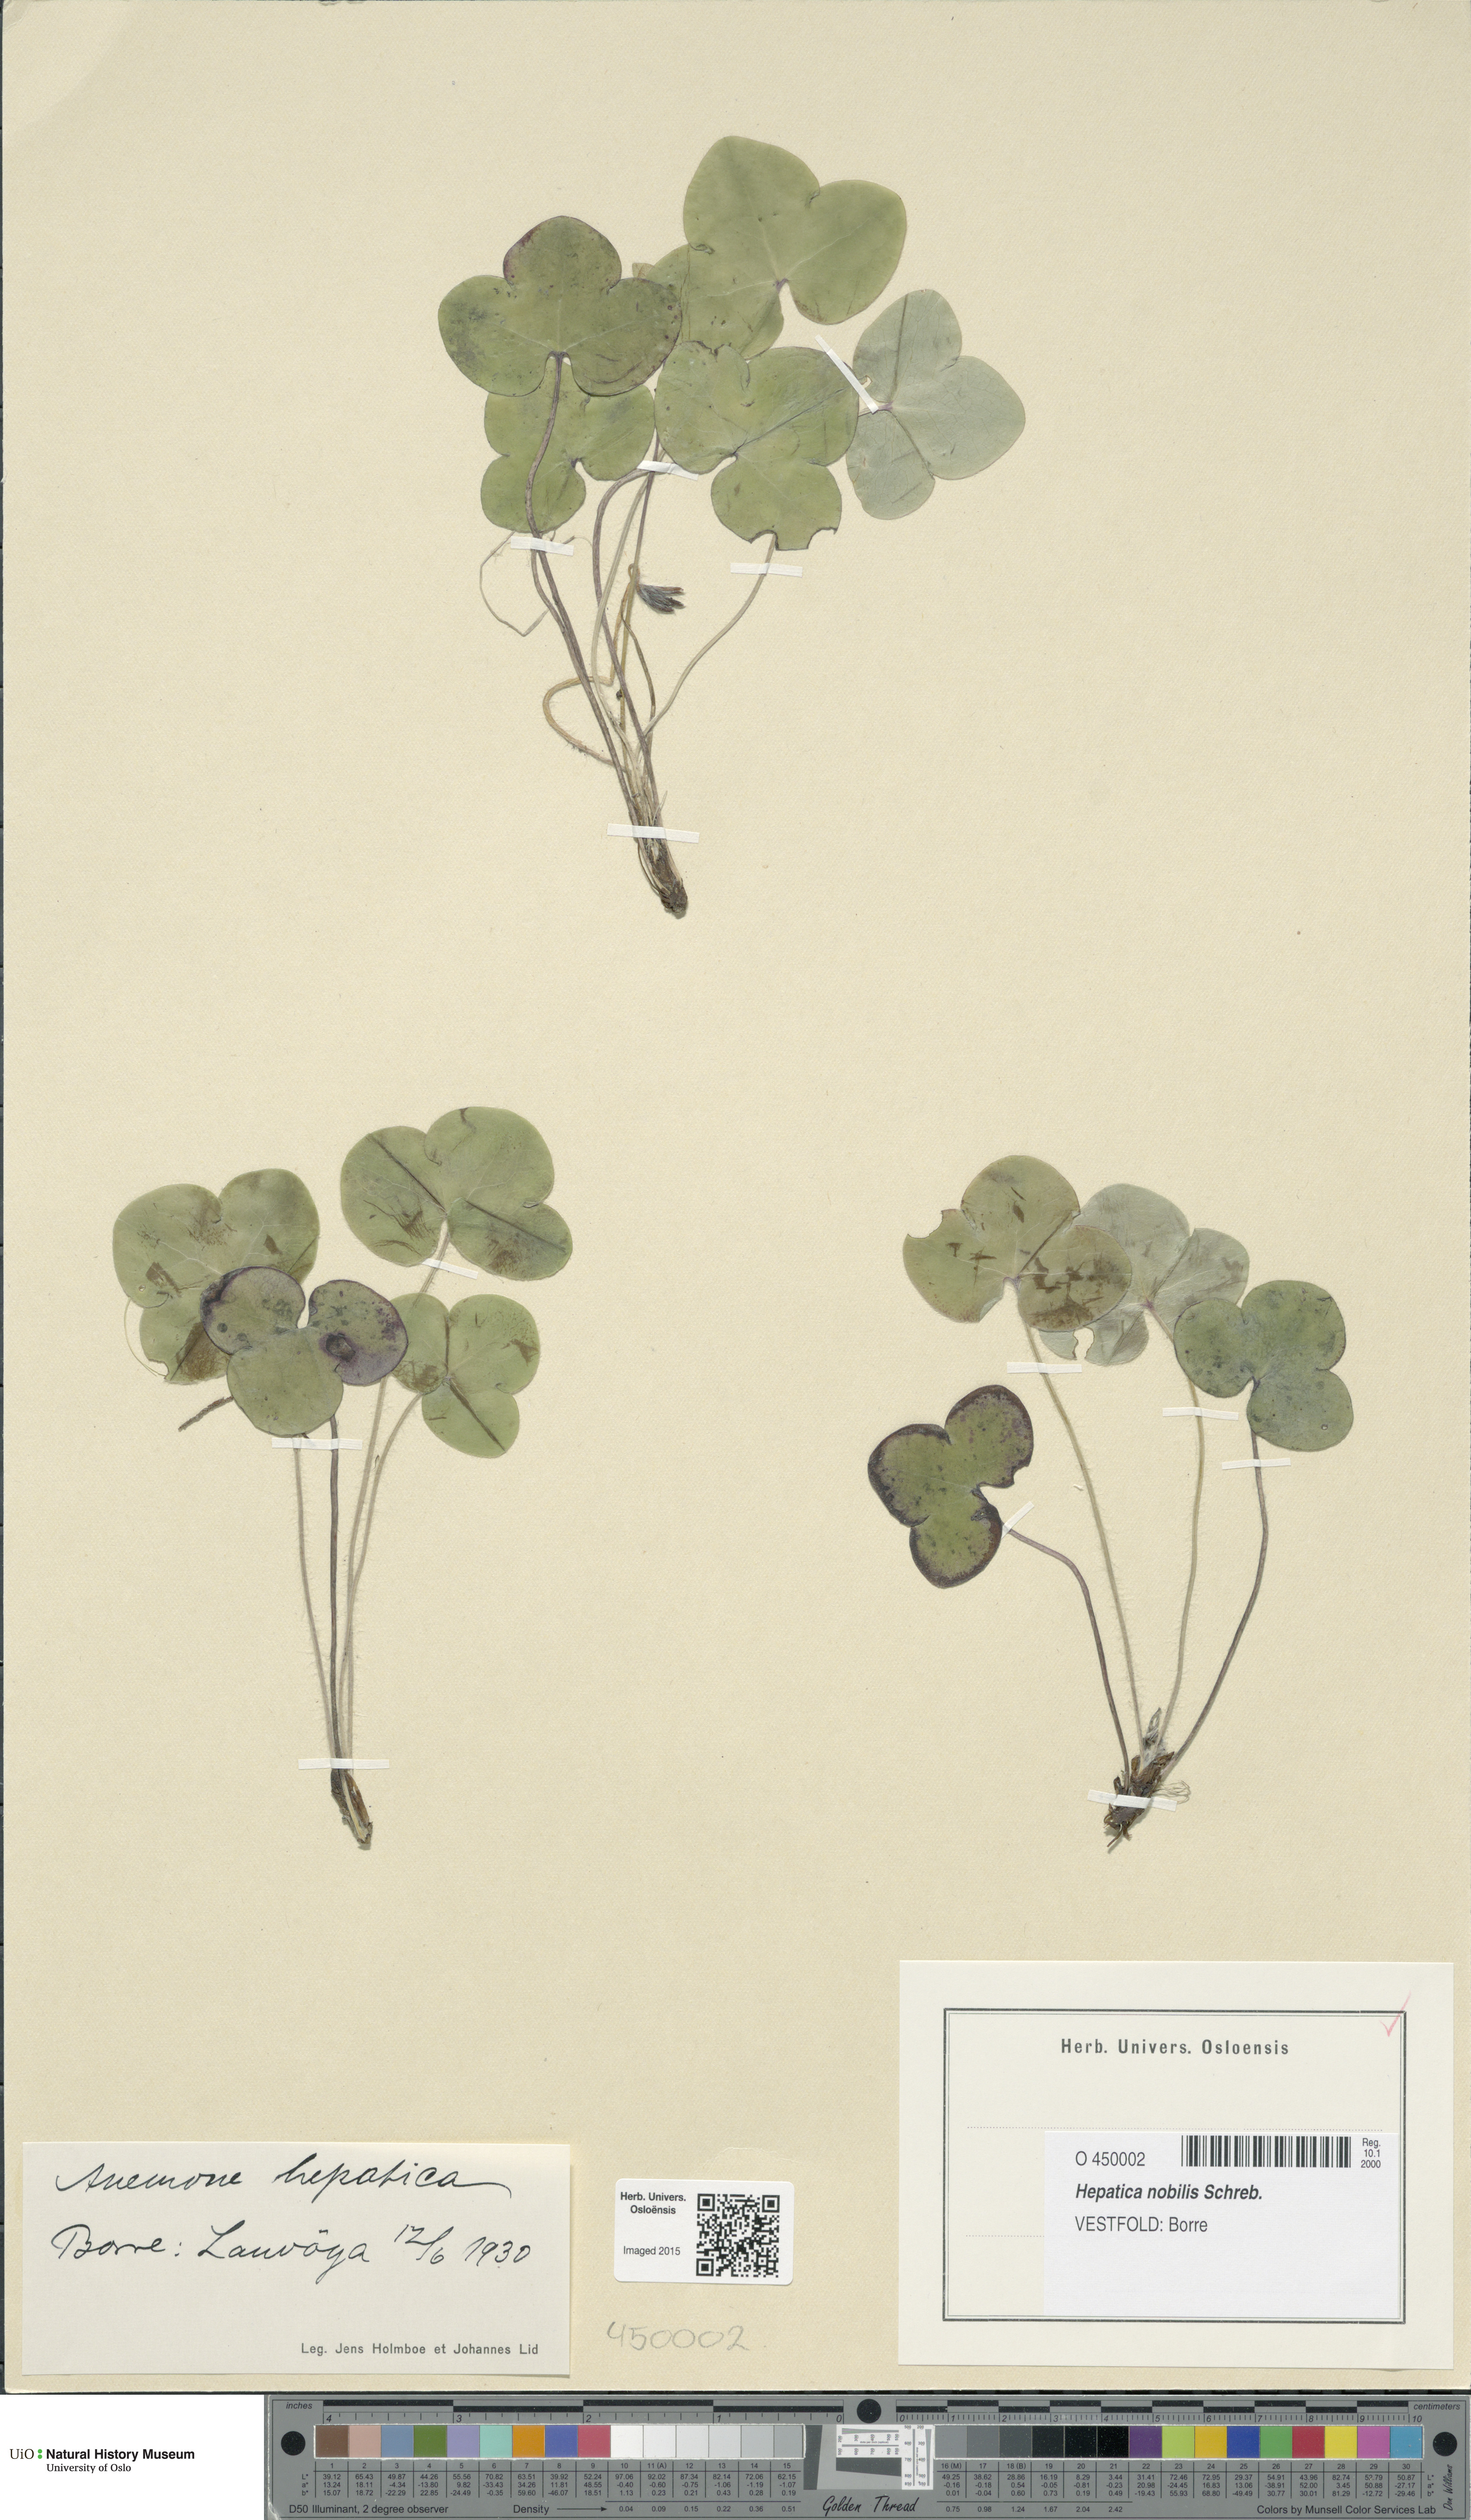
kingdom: Plantae
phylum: Tracheophyta
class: Magnoliopsida
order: Ranunculales
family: Ranunculaceae
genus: Hepatica
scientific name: Hepatica nobilis
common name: Liverleaf
